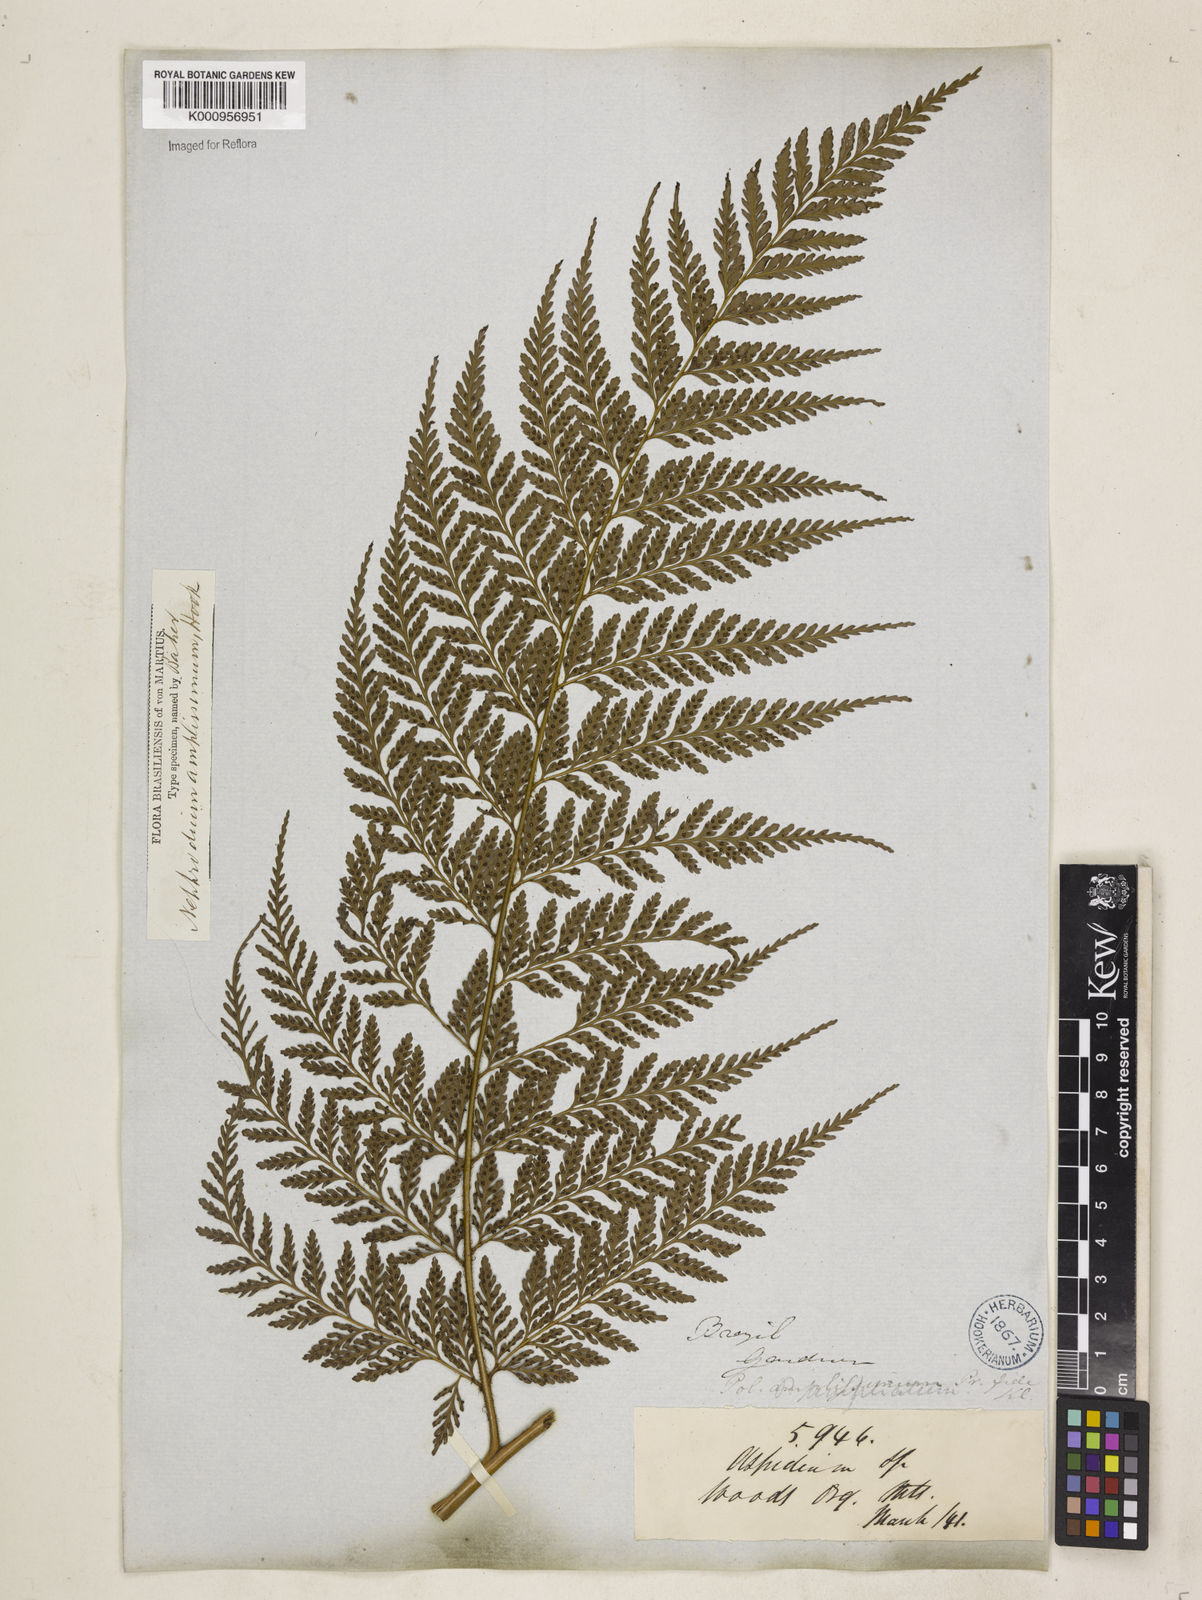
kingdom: Plantae
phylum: Tracheophyta
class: Polypodiopsida
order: Polypodiales
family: Dryopteridaceae
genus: Lastreopsis
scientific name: Lastreopsis amplissima
